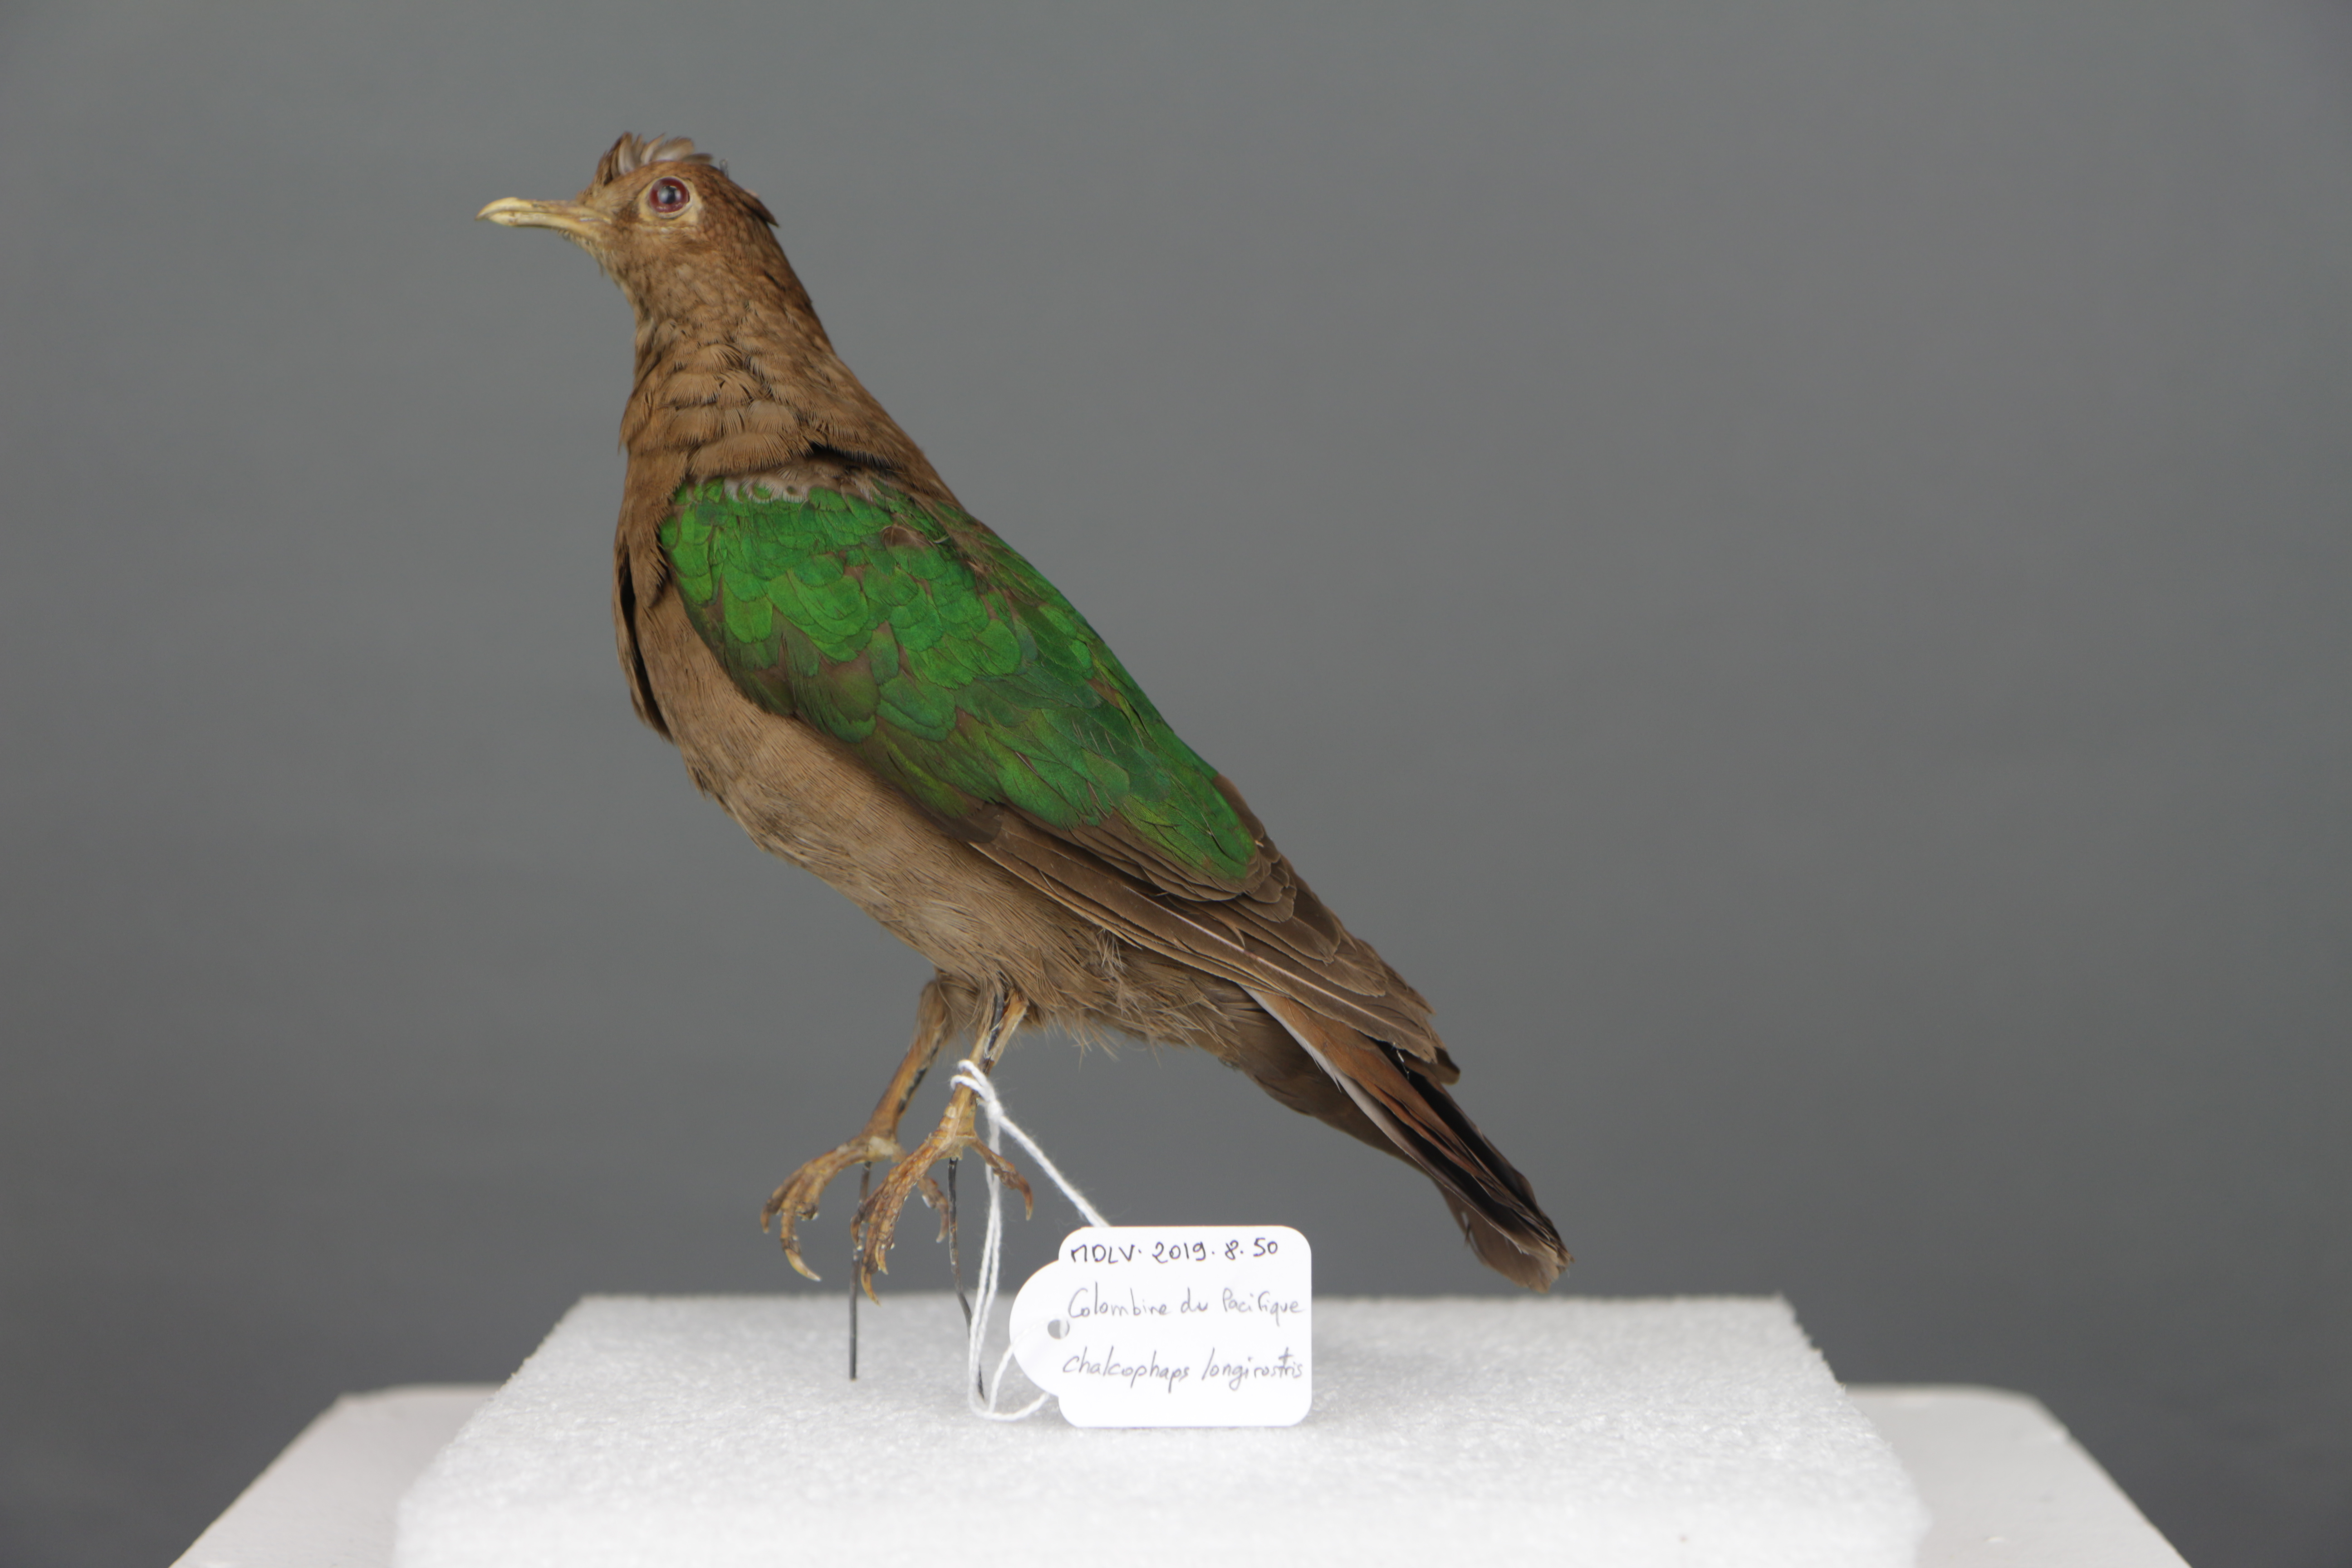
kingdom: Animalia
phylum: Chordata
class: Aves
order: Columbiformes
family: Columbidae
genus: Chalcophaps
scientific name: Chalcophaps longirostris
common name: Pacific emerald dove
